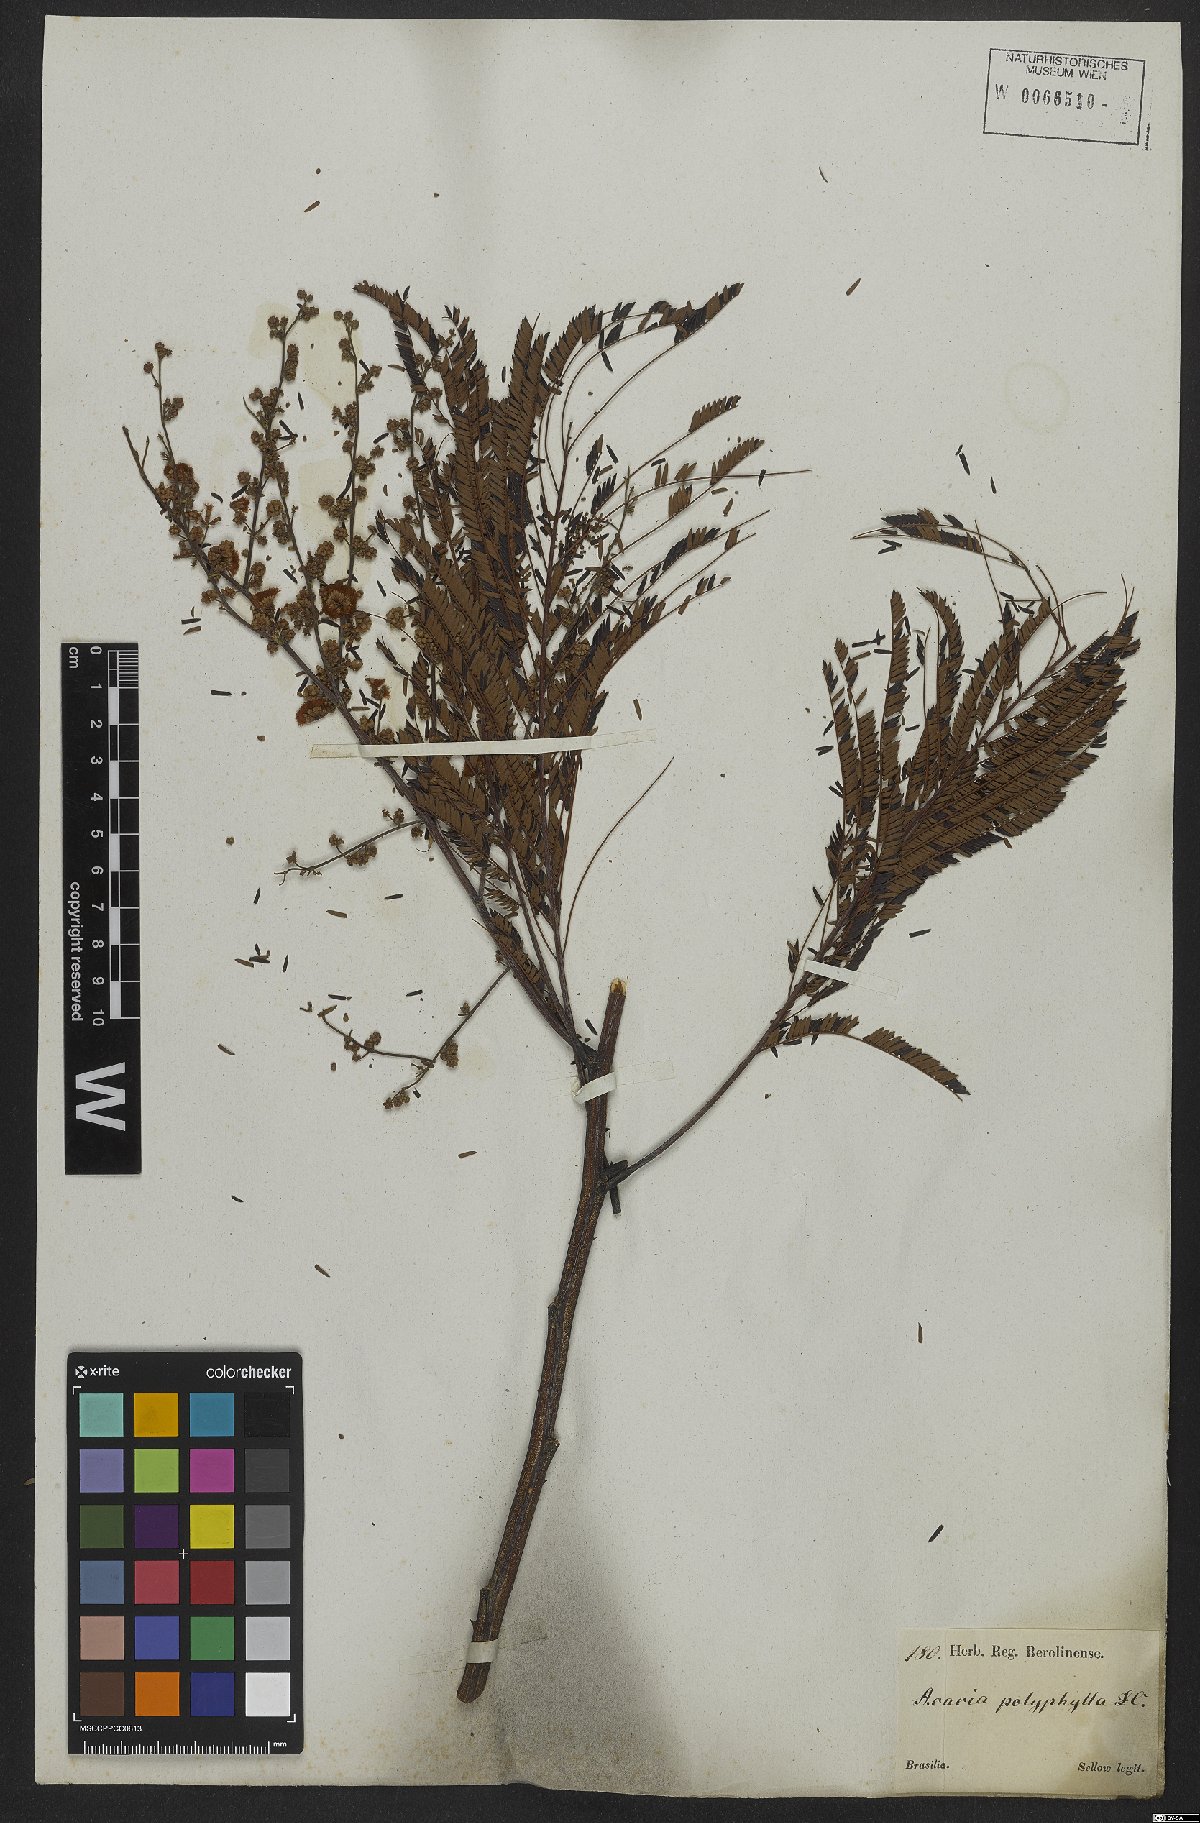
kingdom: Plantae
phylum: Tracheophyta
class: Magnoliopsida
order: Fabales
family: Fabaceae
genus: Senegalia
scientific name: Senegalia polyphylla
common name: White-tamarind
